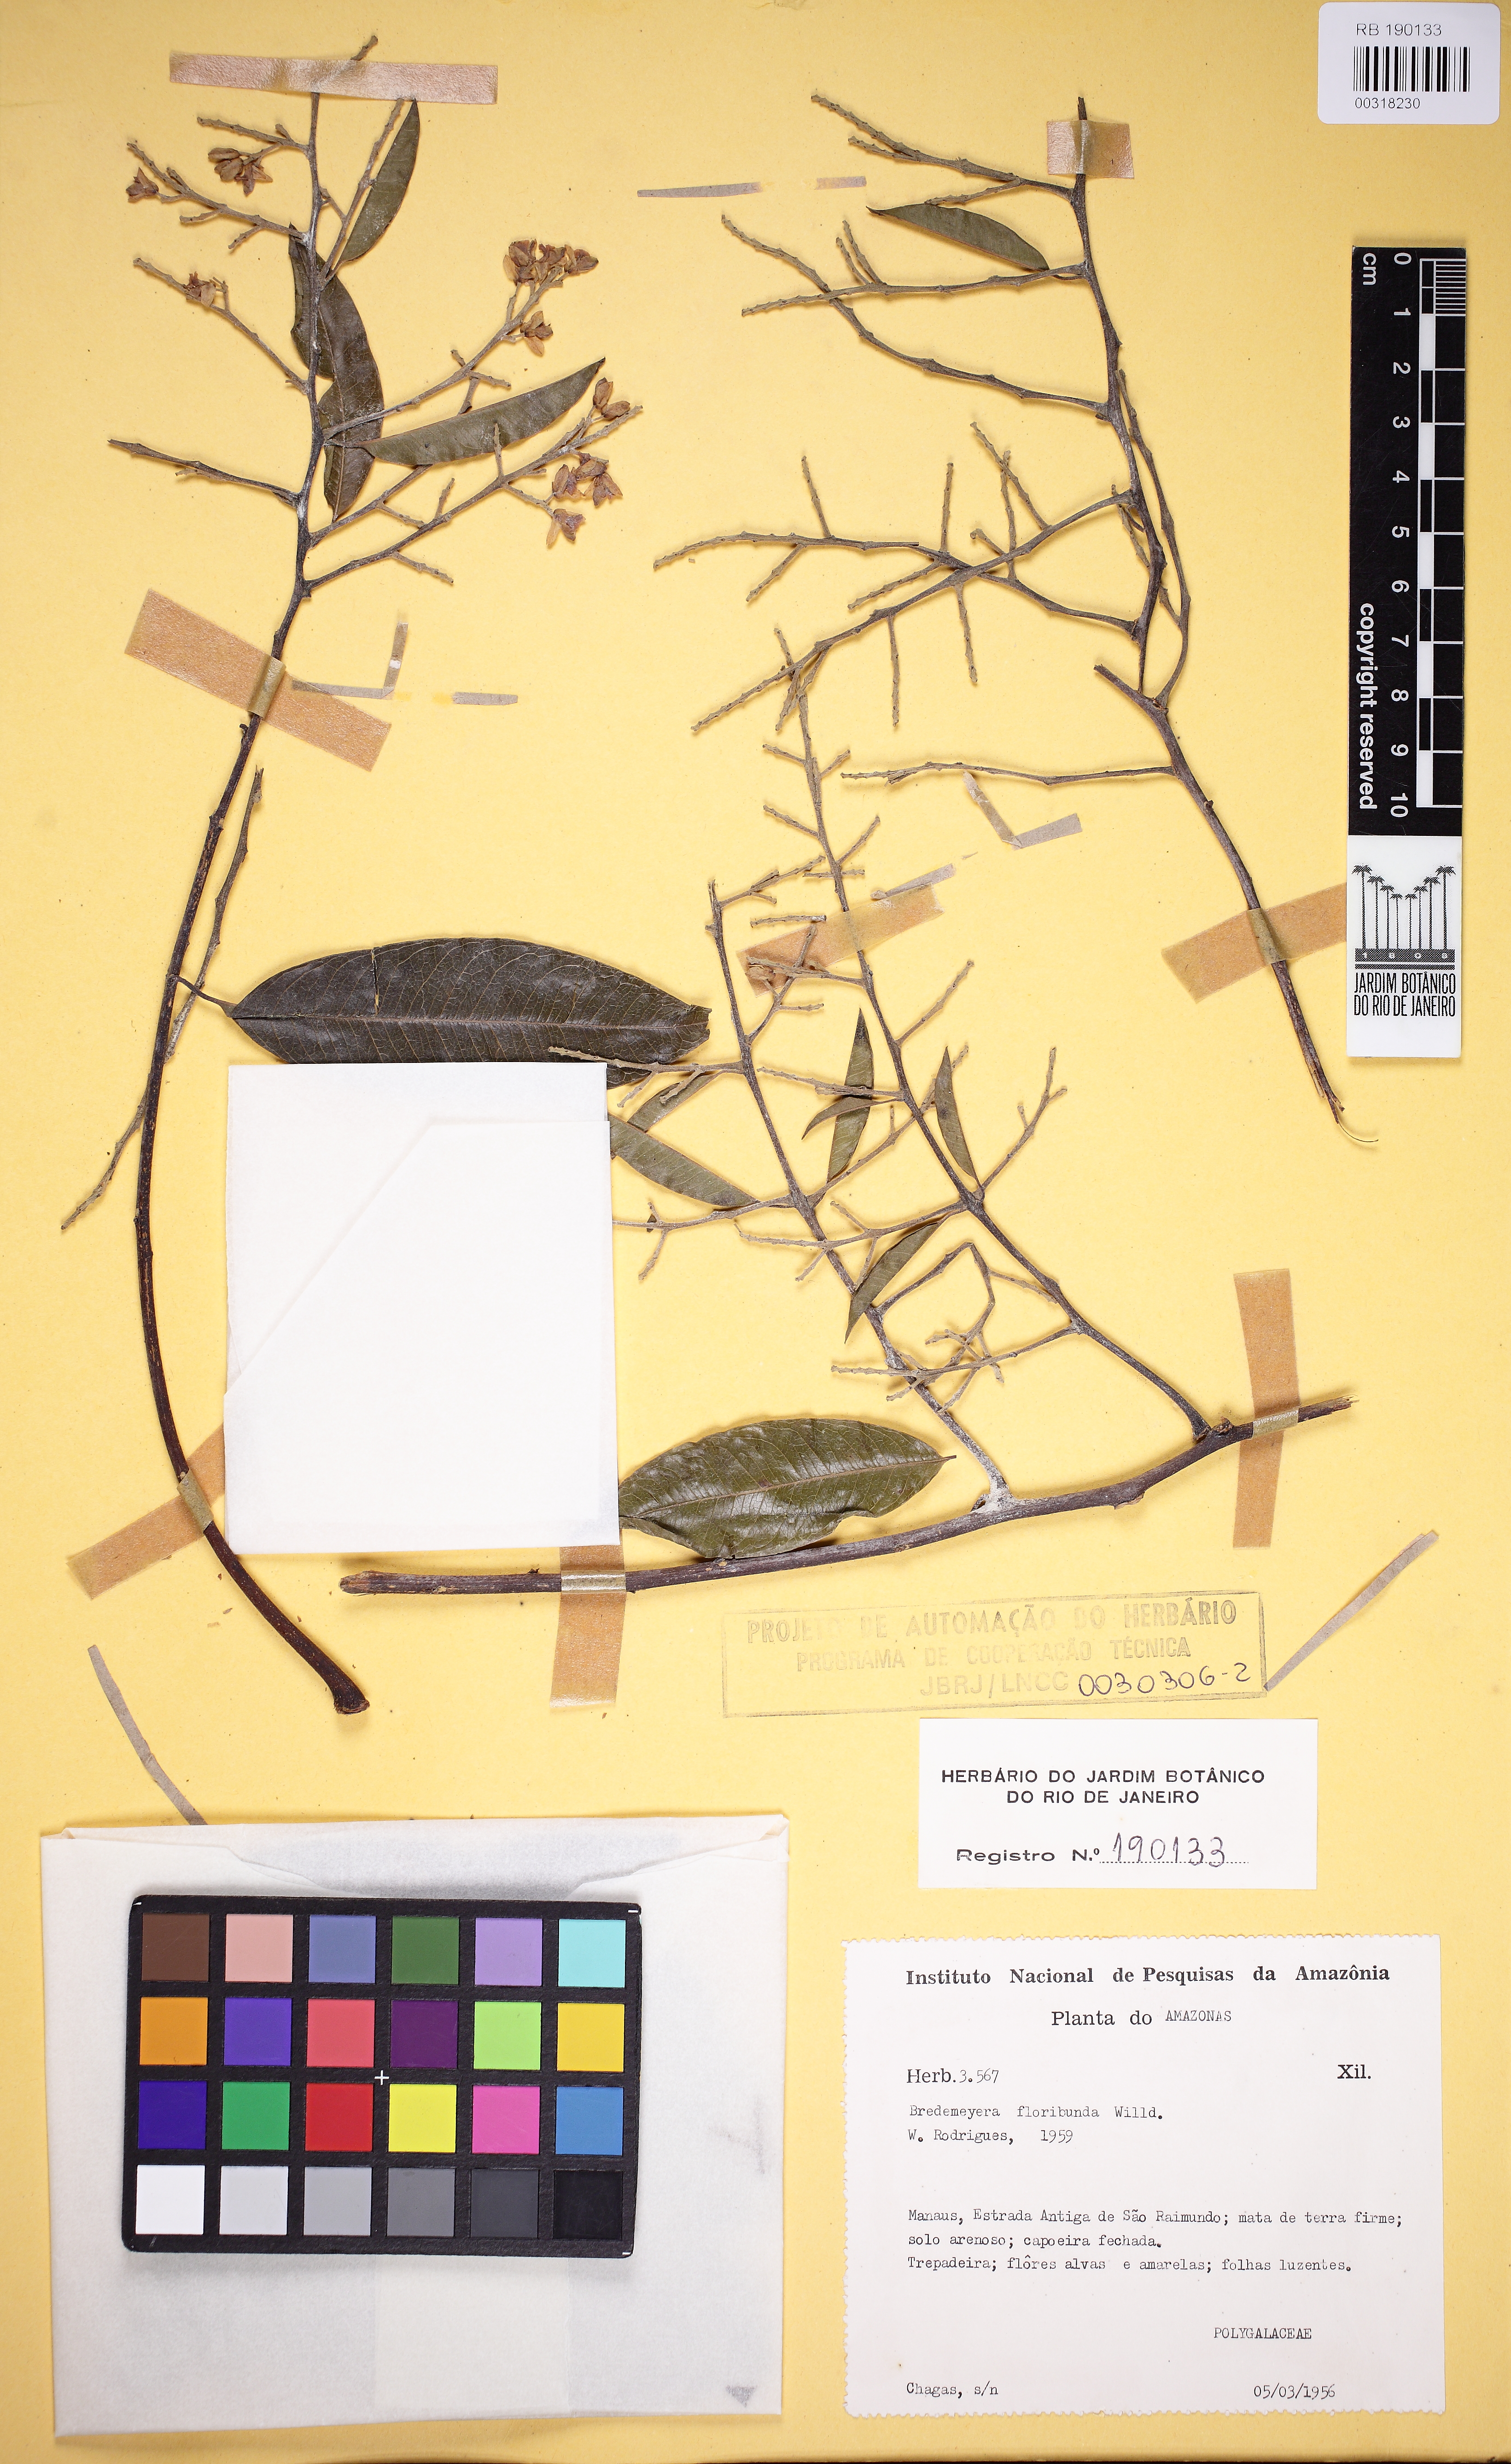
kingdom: Plantae
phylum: Tracheophyta
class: Magnoliopsida
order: Fabales
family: Polygalaceae
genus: Bredemeyera
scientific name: Bredemeyera floribunda
